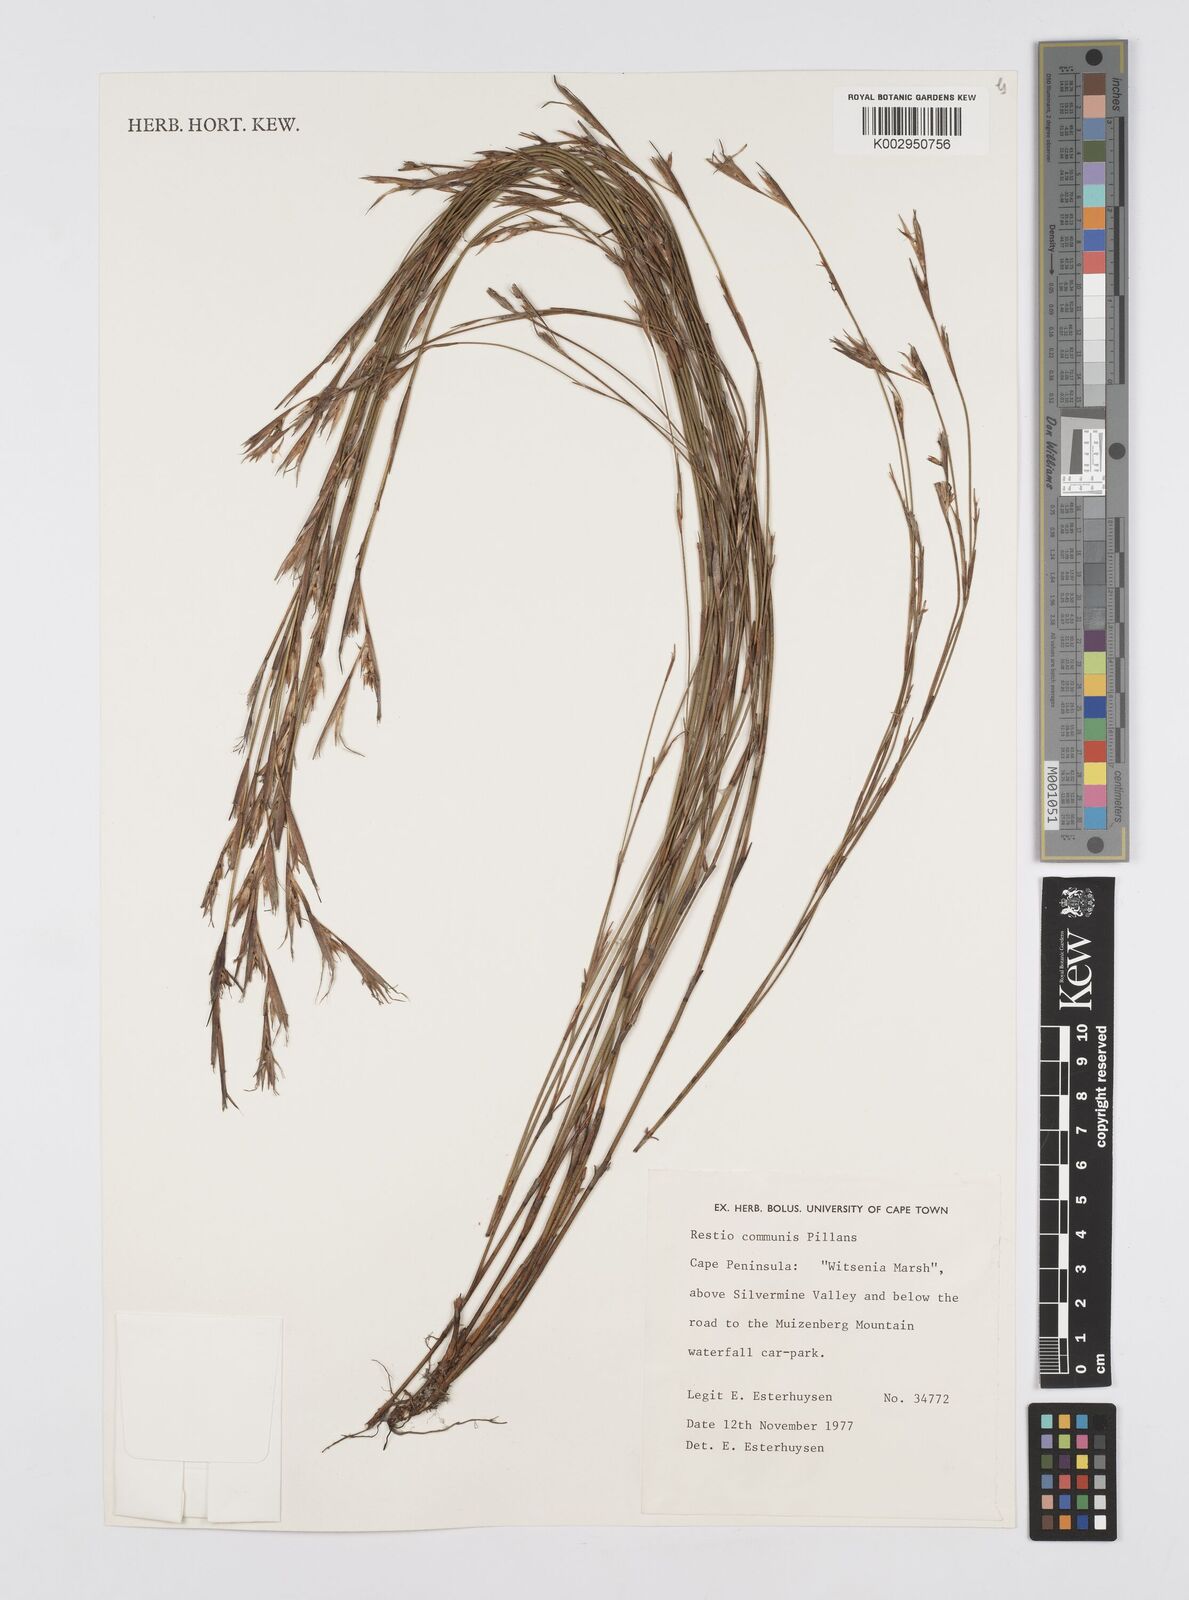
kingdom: Plantae
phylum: Tracheophyta
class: Liliopsida
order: Poales
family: Restionaceae
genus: Restio
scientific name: Restio communis
